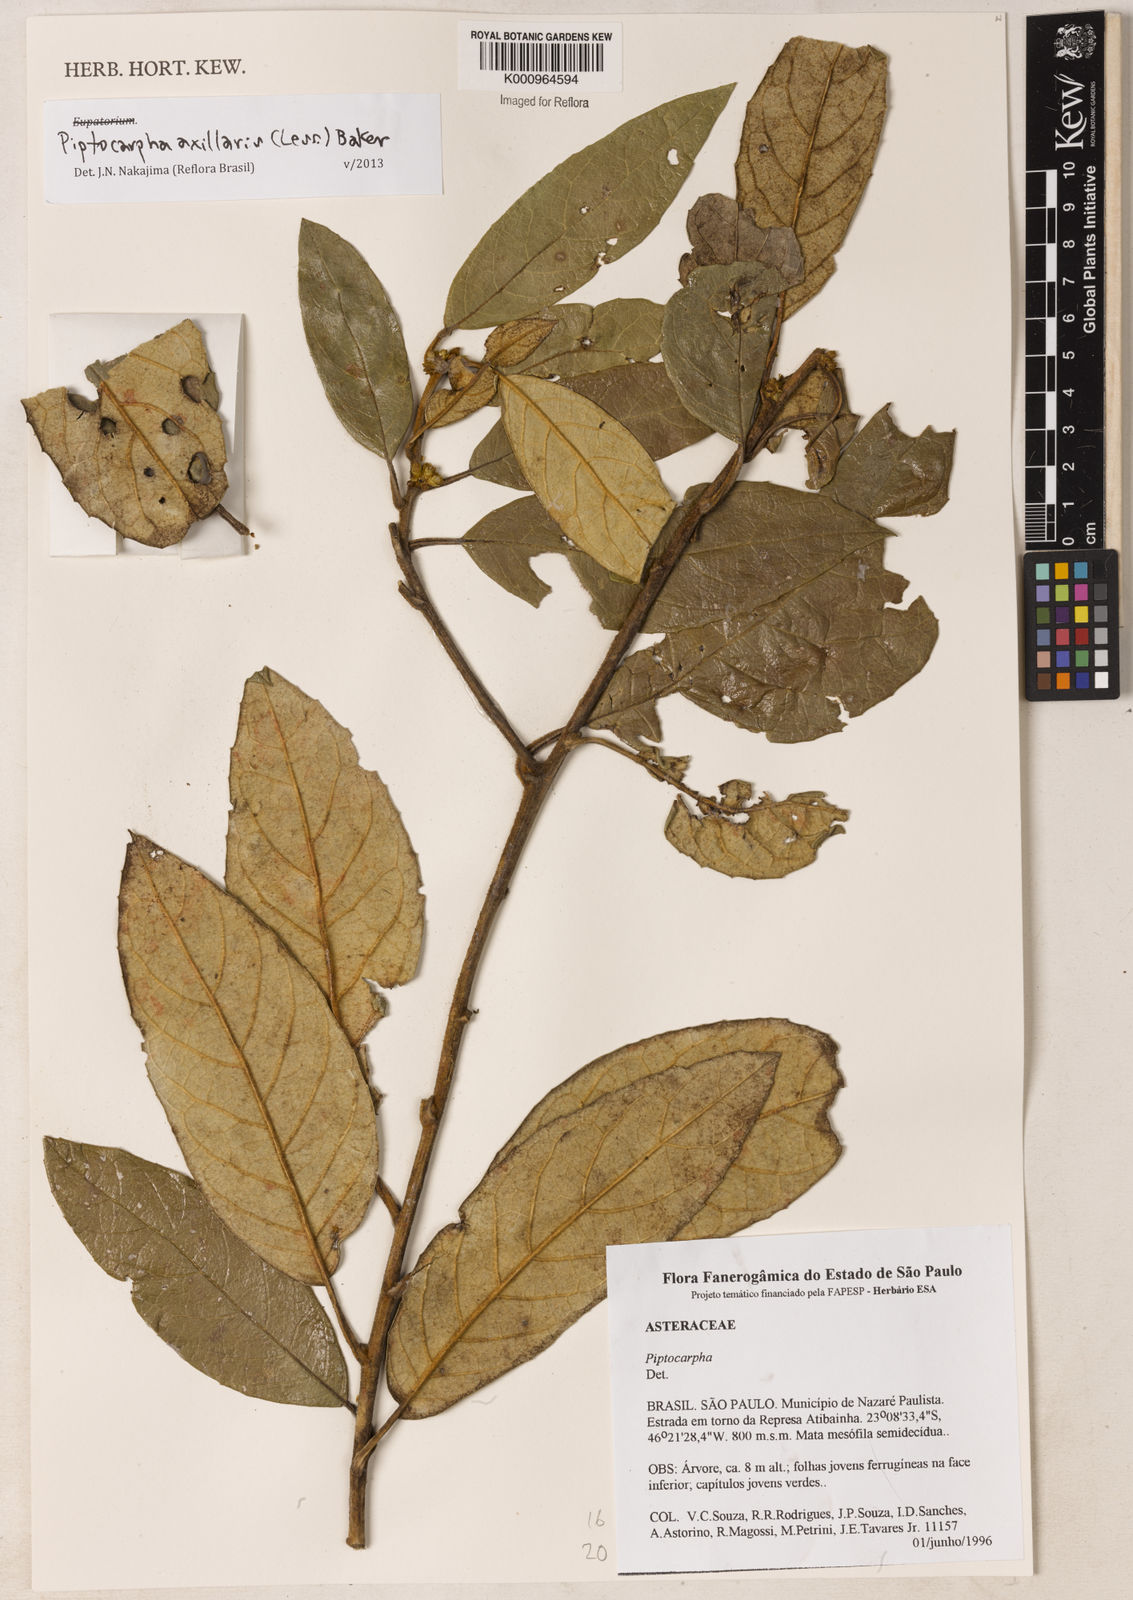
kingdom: Plantae
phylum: Tracheophyta
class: Magnoliopsida
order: Asterales
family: Asteraceae
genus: Piptocarpha
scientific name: Piptocarpha axillaris
